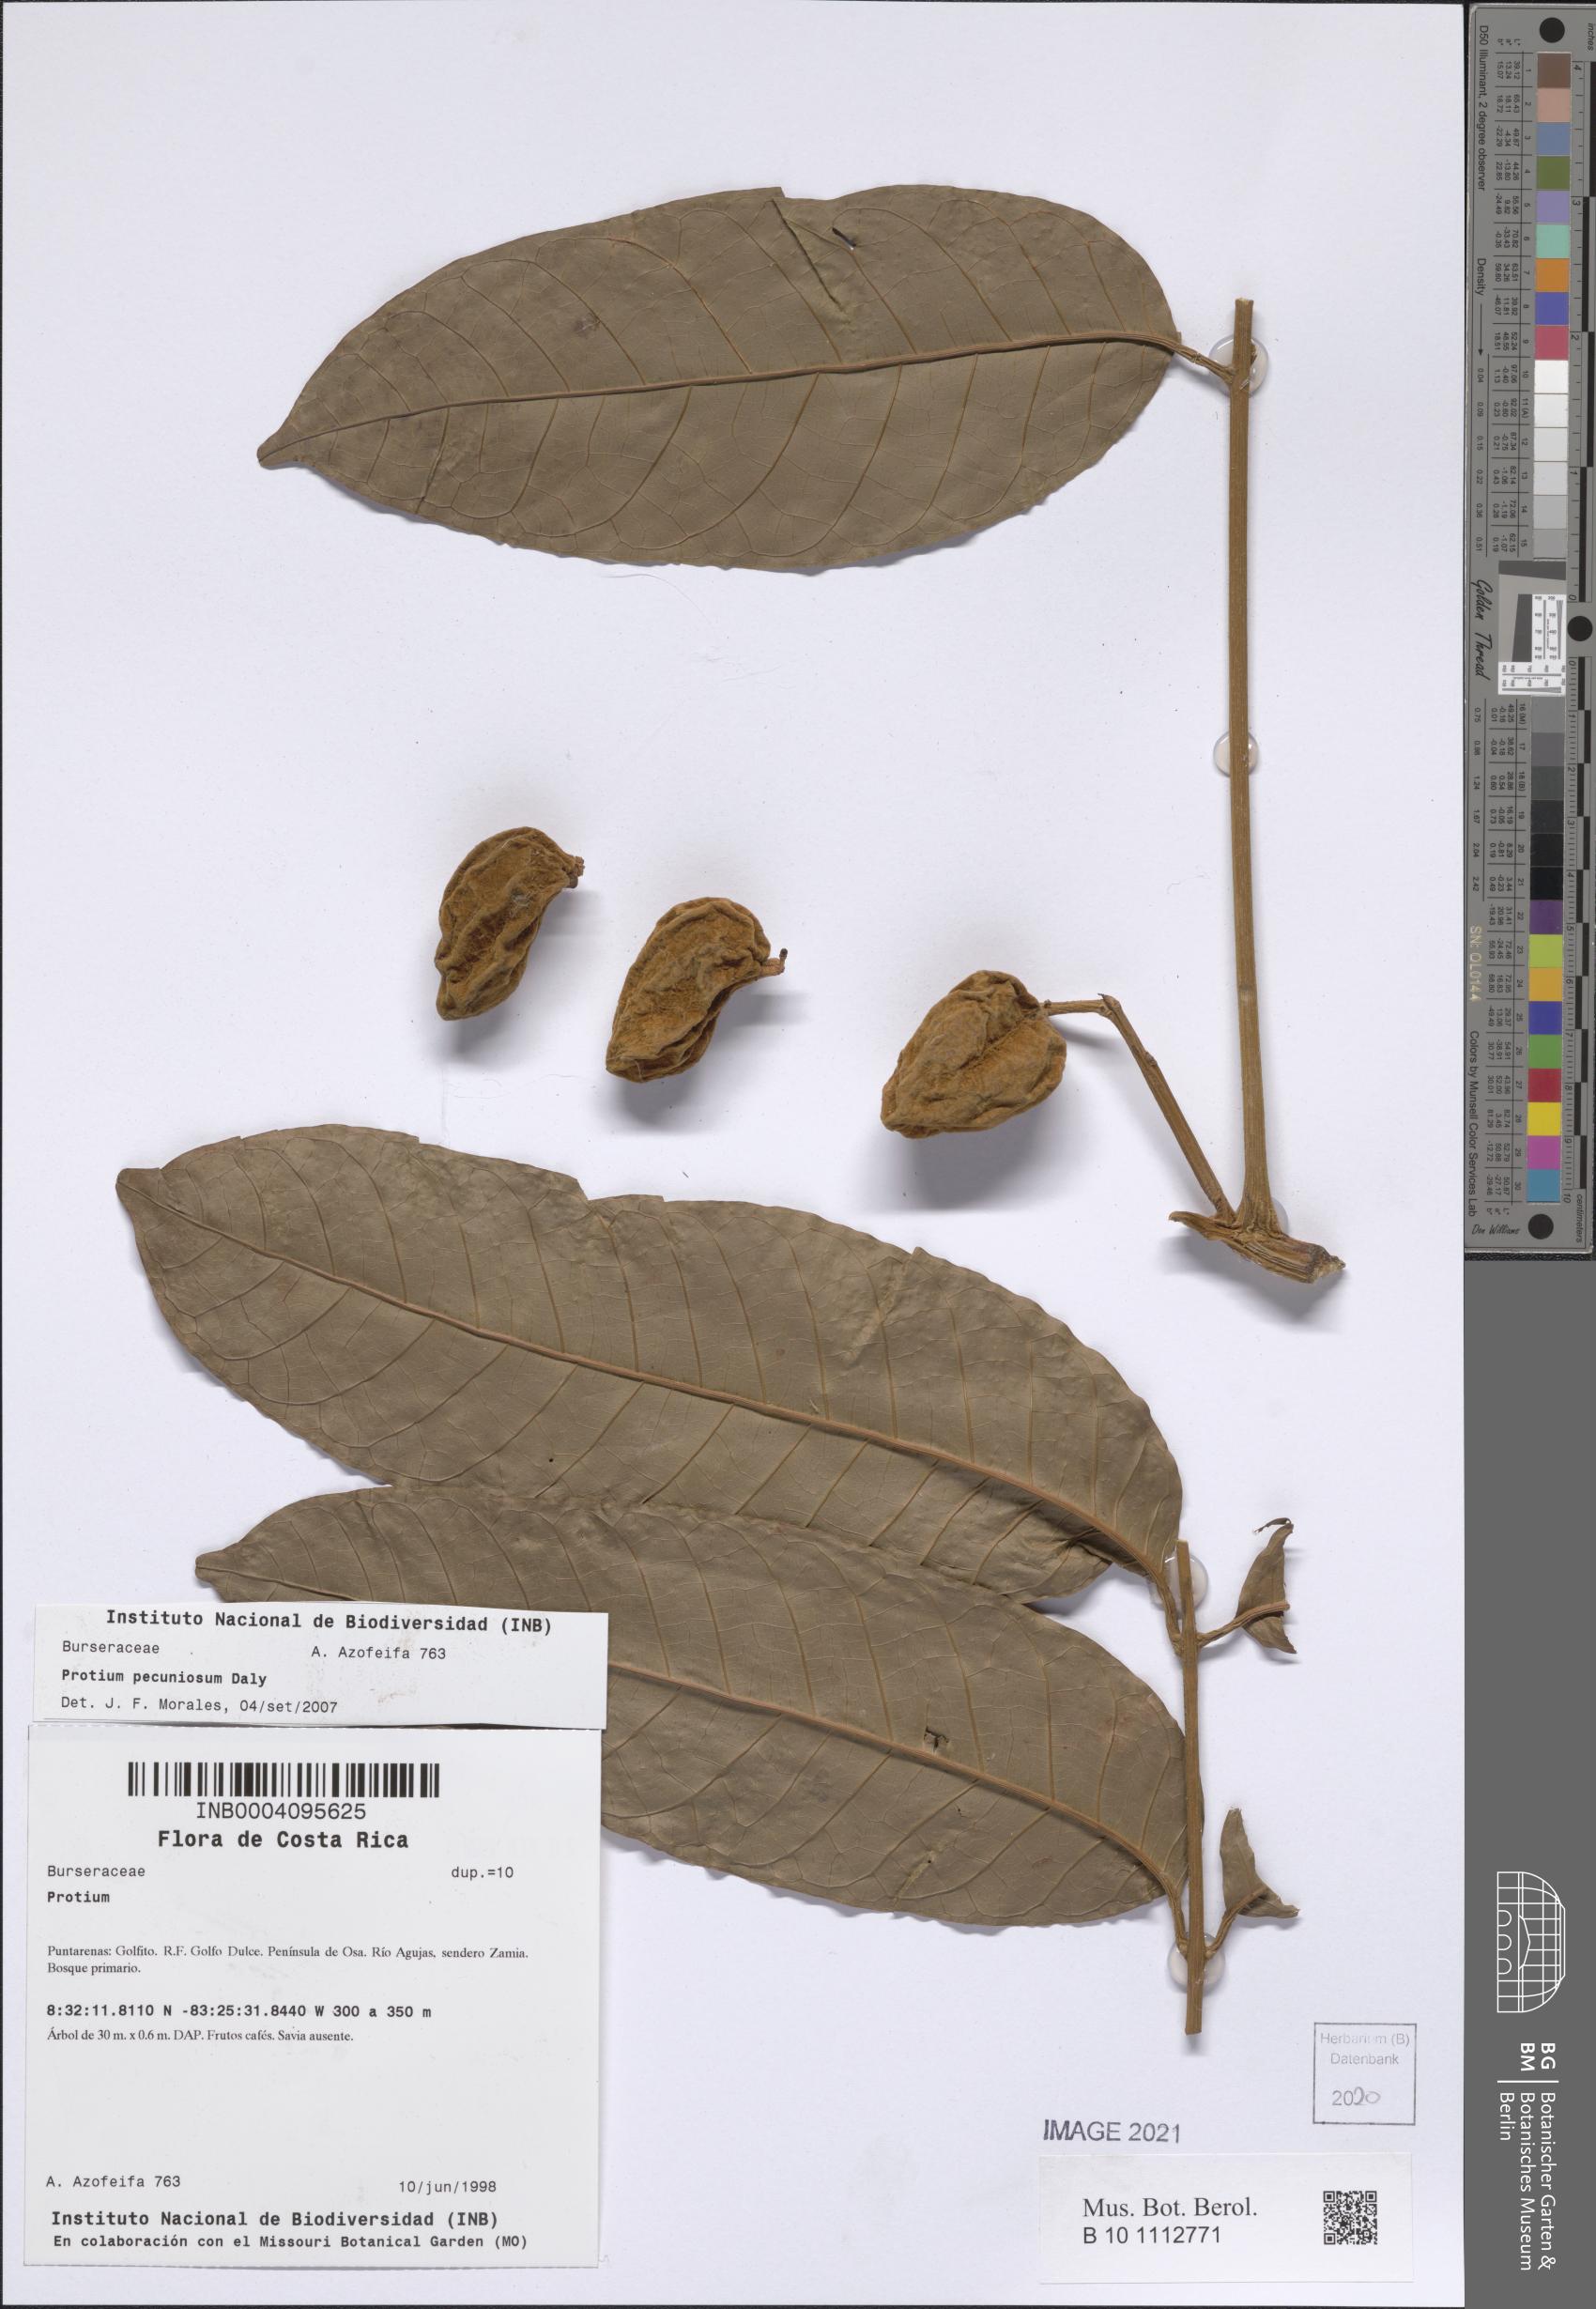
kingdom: Plantae
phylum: Tracheophyta
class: Magnoliopsida
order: Sapindales
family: Burseraceae
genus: Protium
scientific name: Protium pecuniosum
